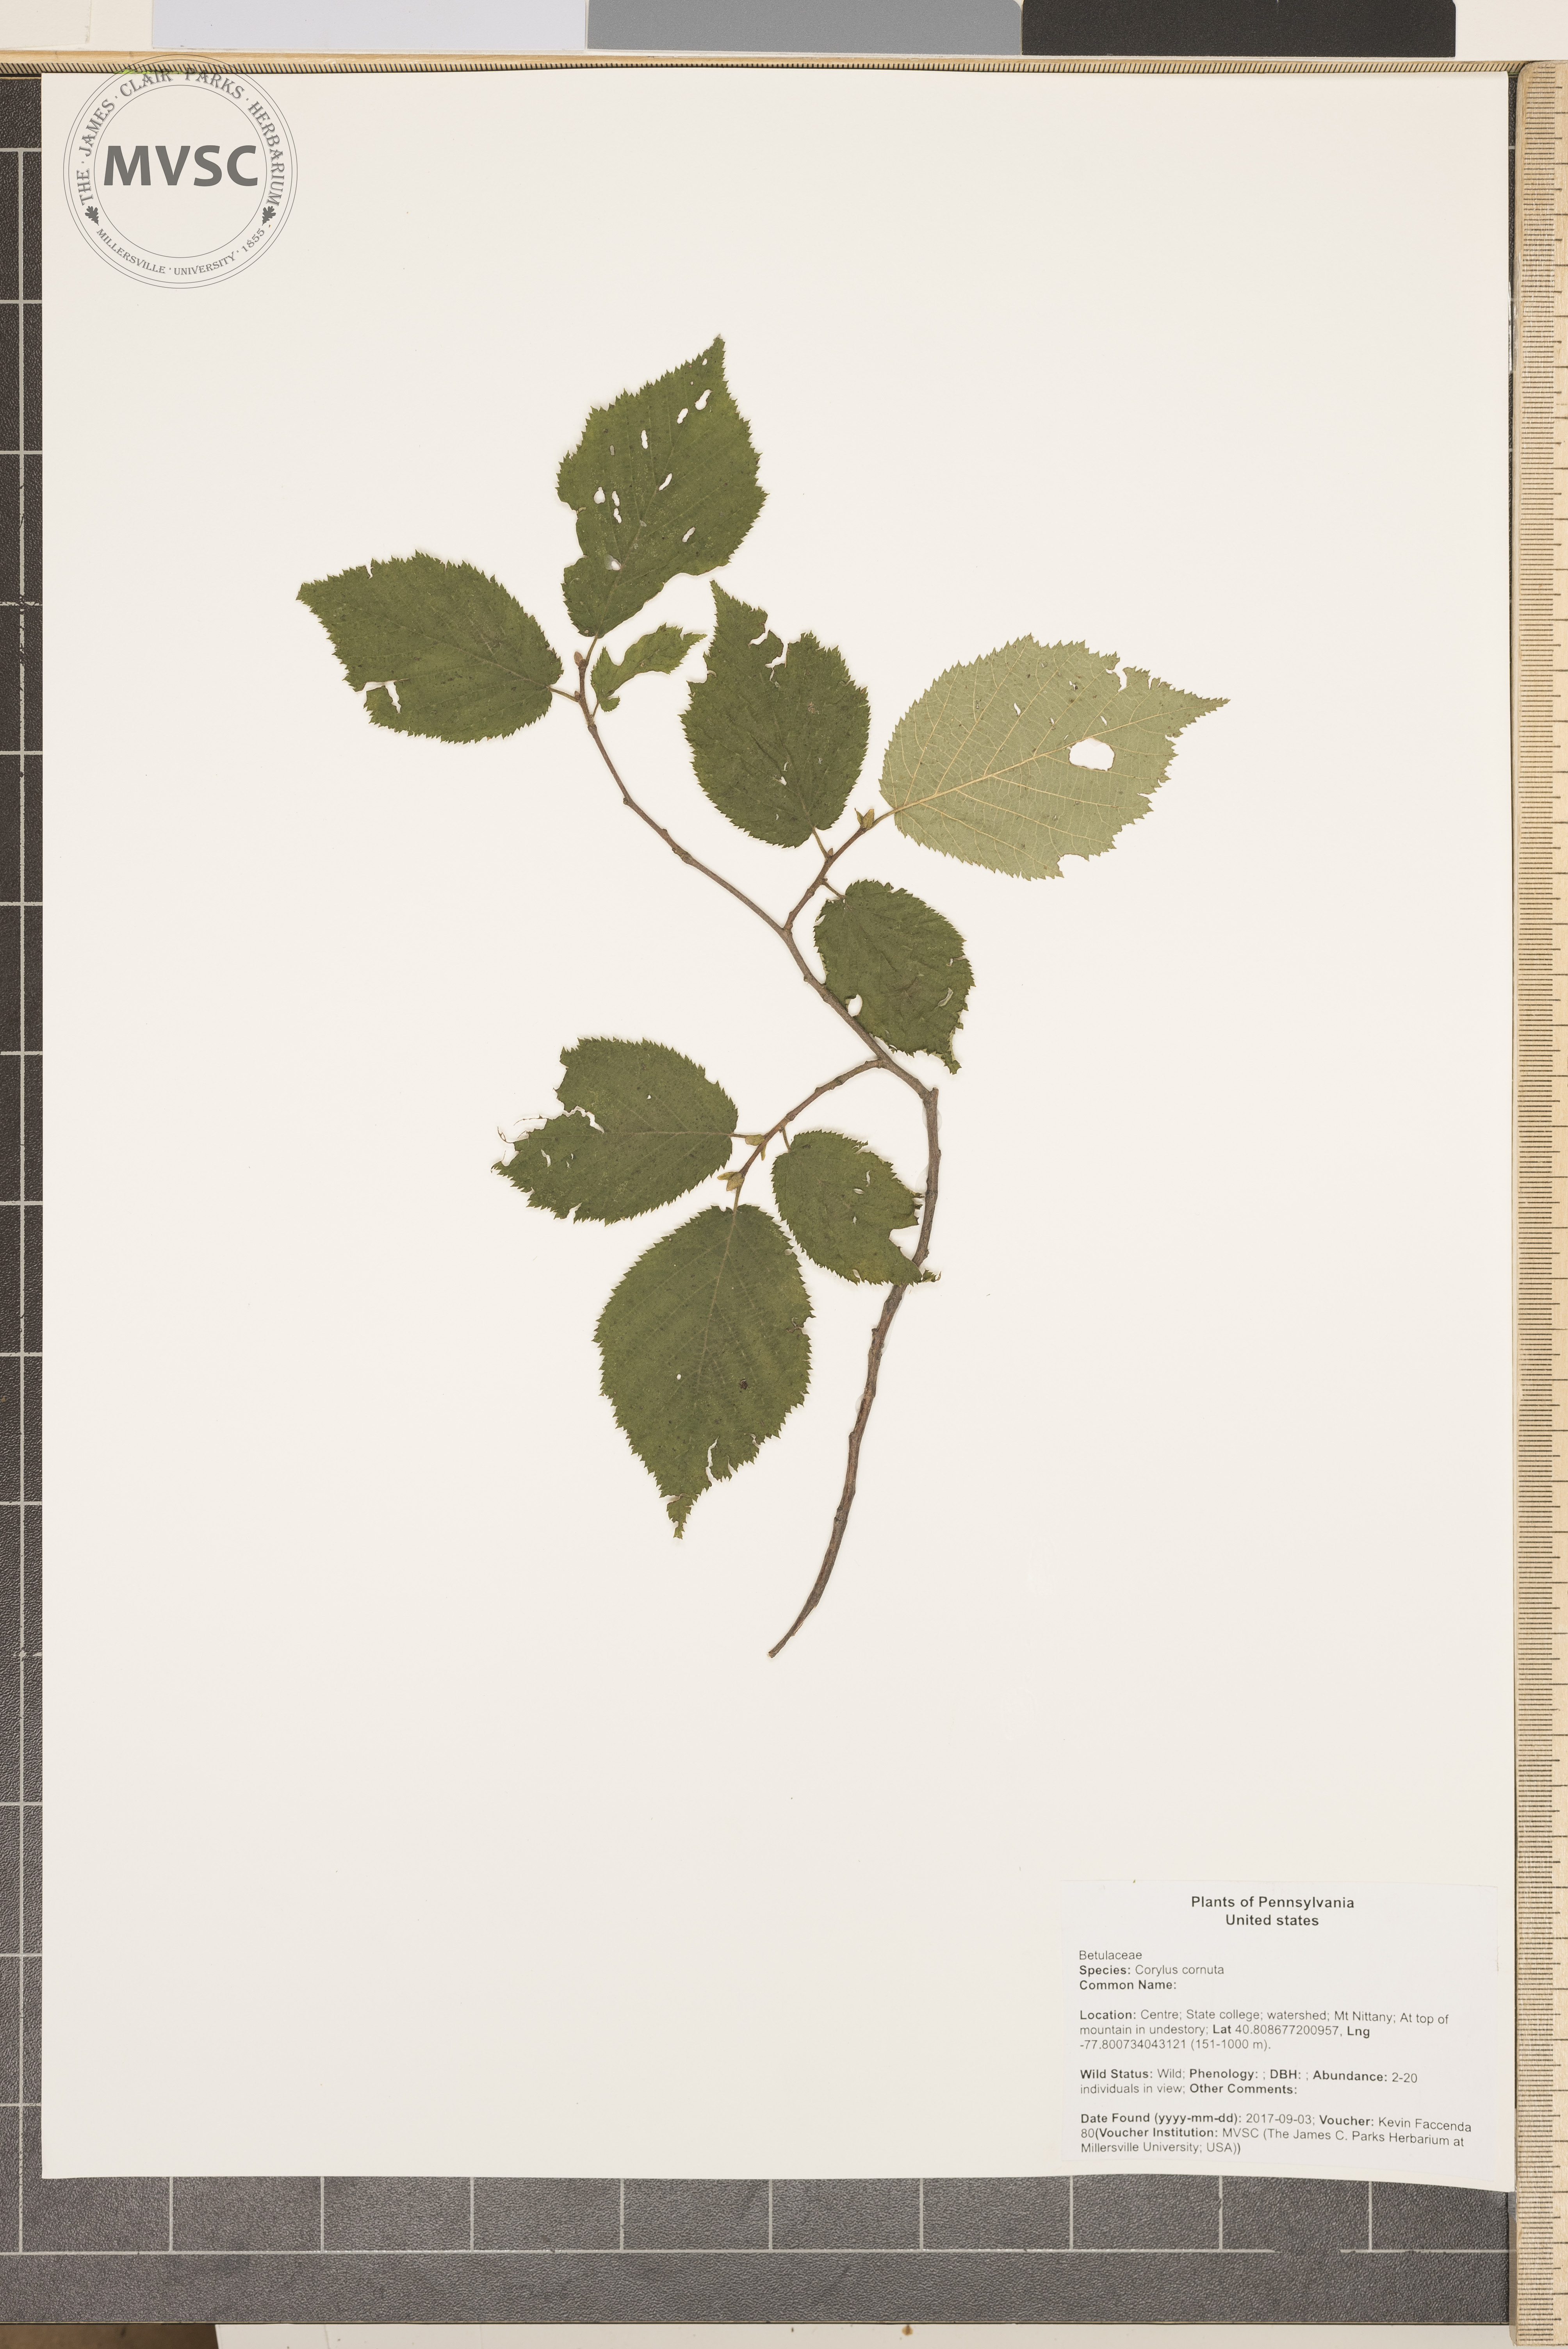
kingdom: Plantae
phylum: Tracheophyta
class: Magnoliopsida
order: Fagales
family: Betulaceae
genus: Corylus
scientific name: Corylus cornuta
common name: Beaked hazel
